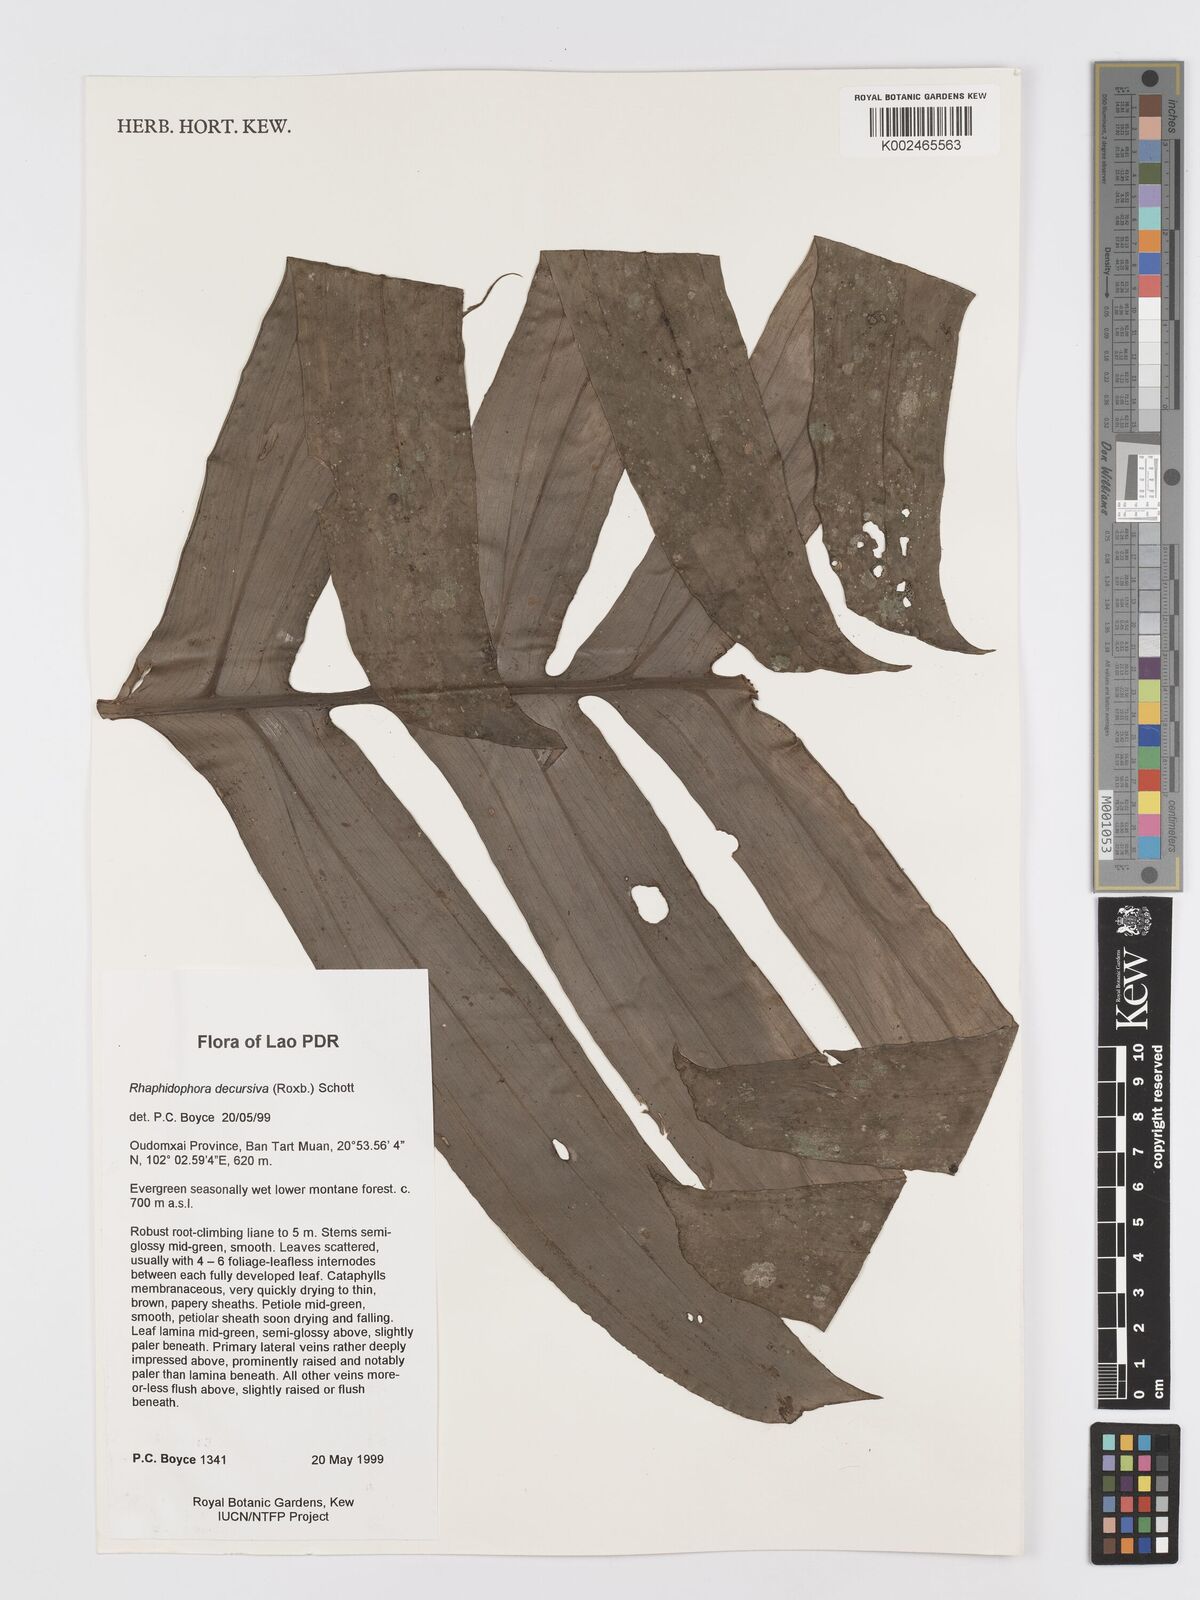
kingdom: Plantae
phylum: Tracheophyta
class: Liliopsida
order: Alismatales
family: Araceae
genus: Rhaphidophora
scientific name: Rhaphidophora decursiva
